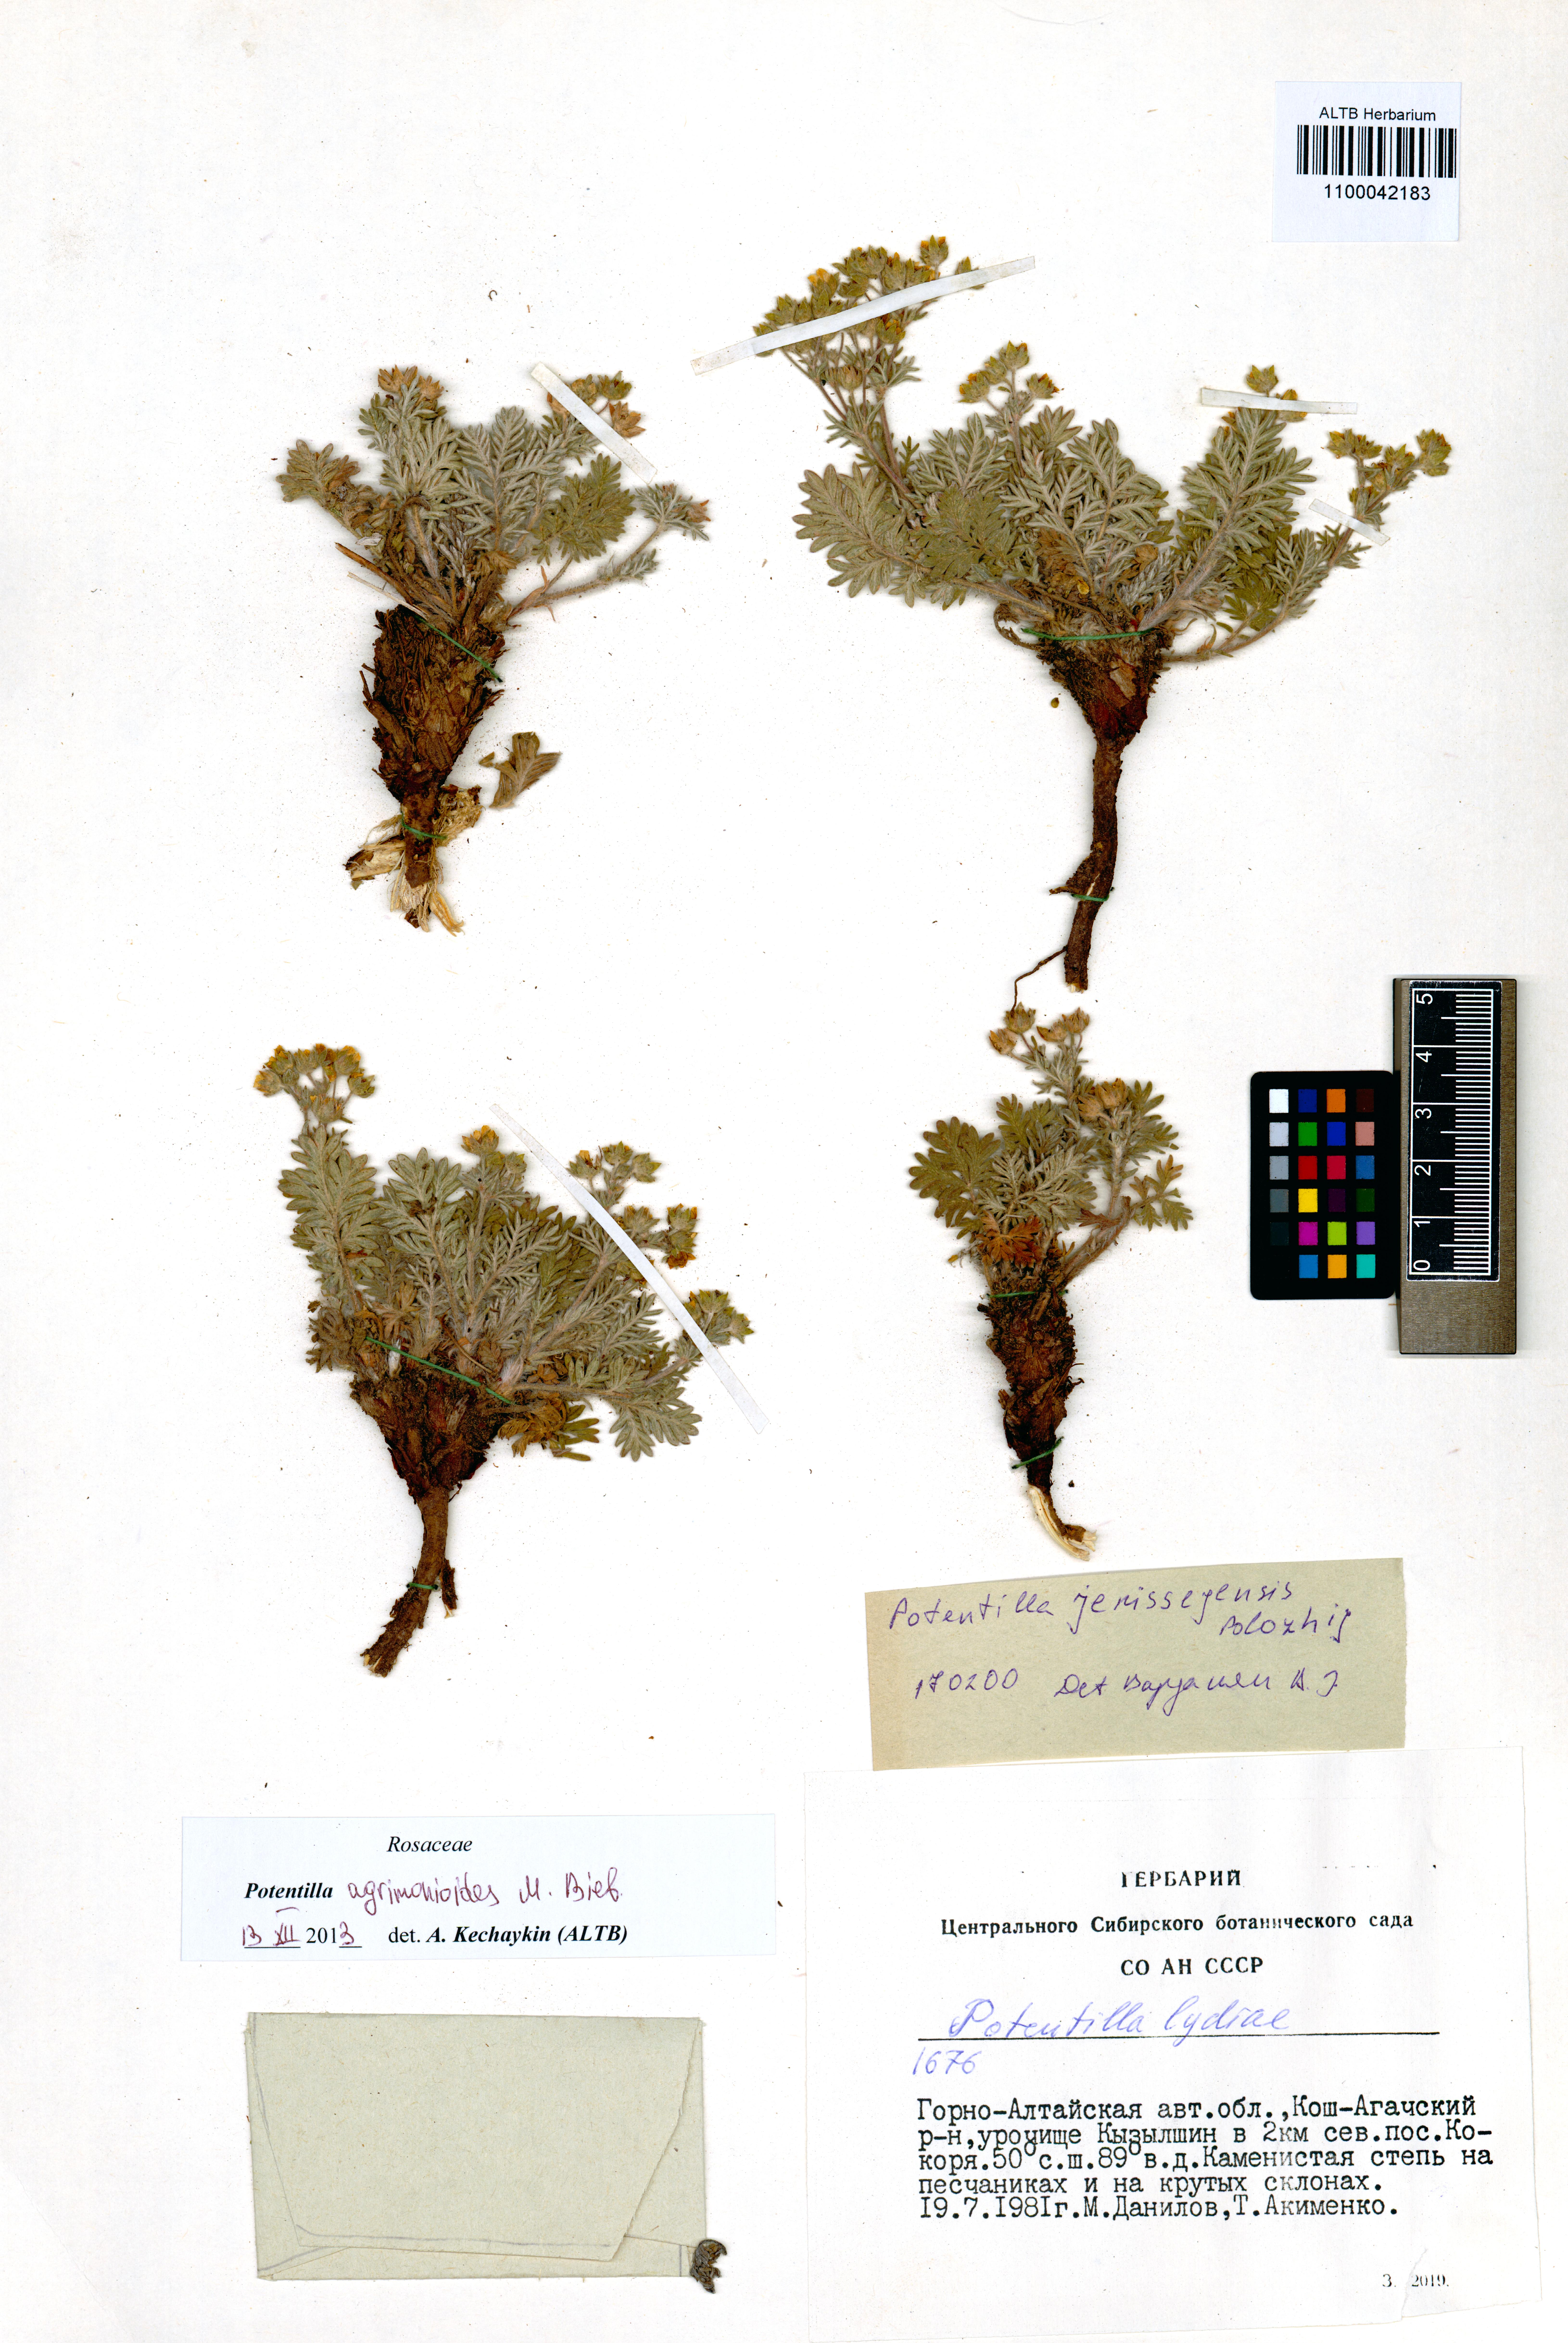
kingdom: Plantae
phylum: Tracheophyta
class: Magnoliopsida
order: Rosales
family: Rosaceae
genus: Potentilla
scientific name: Potentilla agrimonioides
